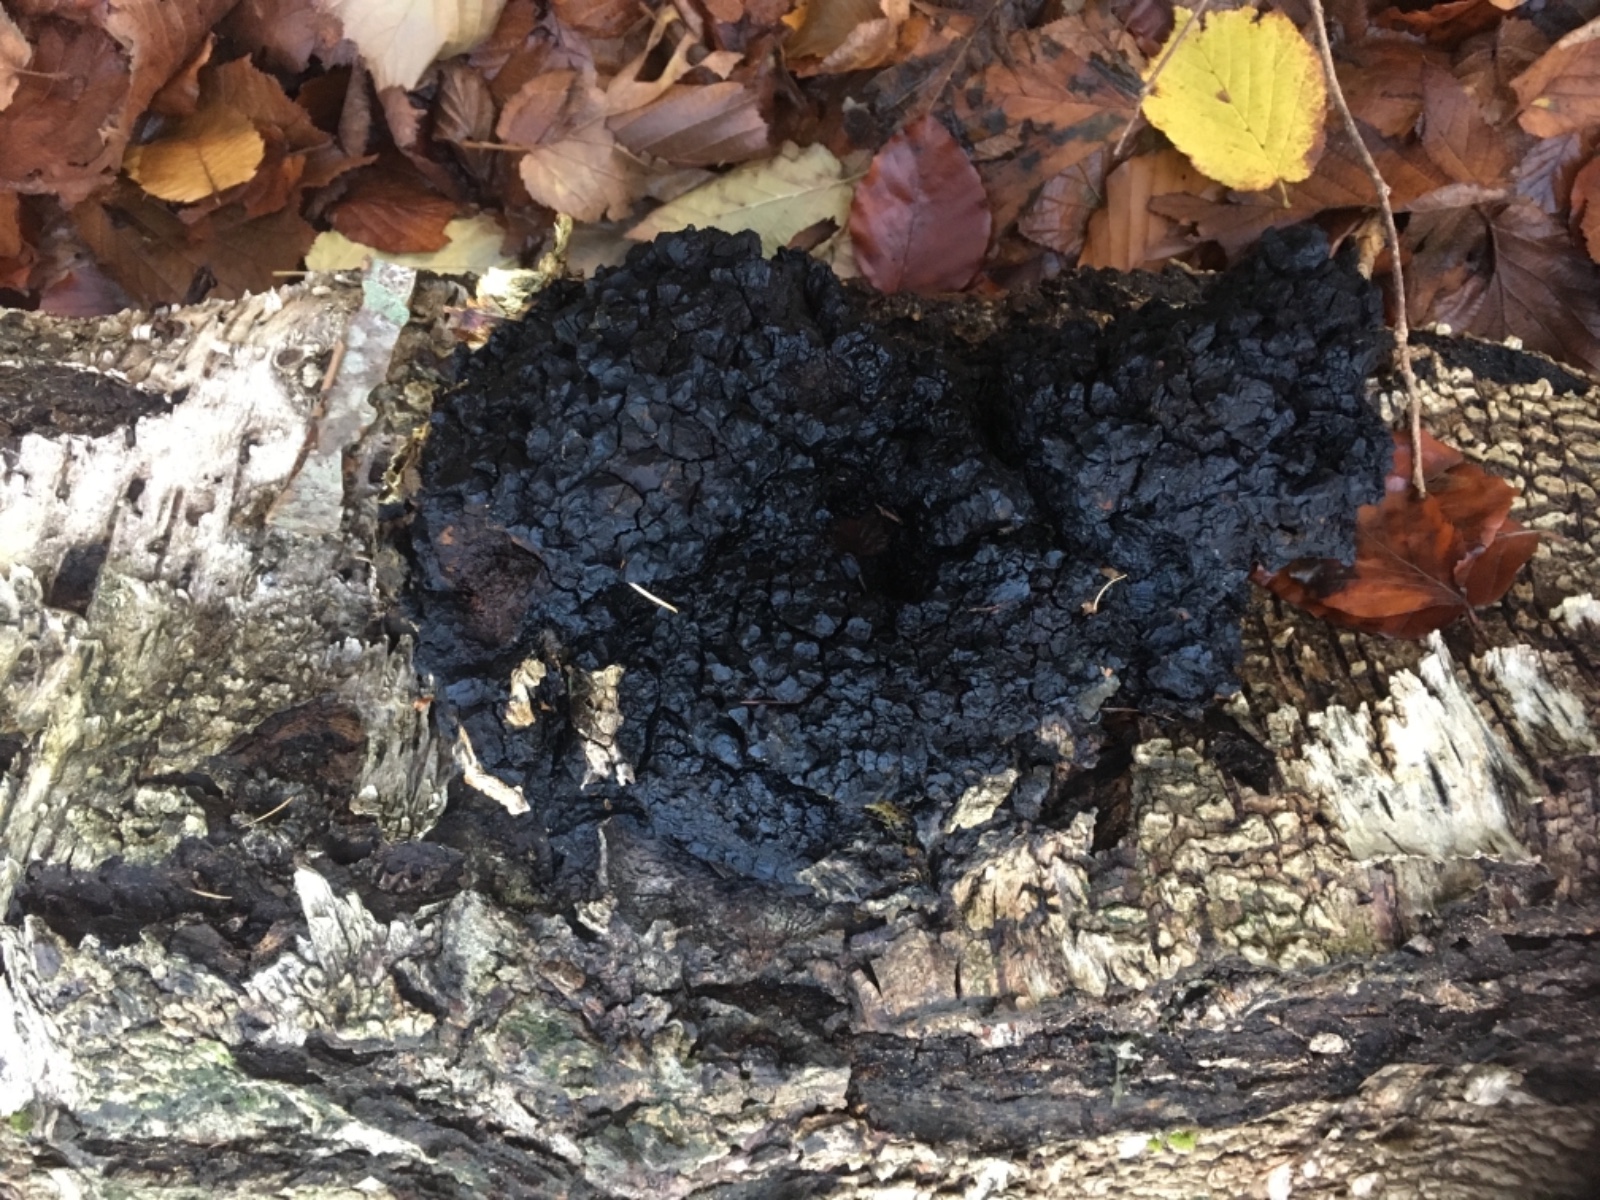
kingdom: Fungi
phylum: Basidiomycota
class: Agaricomycetes
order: Hymenochaetales
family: Hymenochaetaceae
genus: Inonotus
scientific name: Inonotus obliquus
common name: birke-spejlporesvamp
